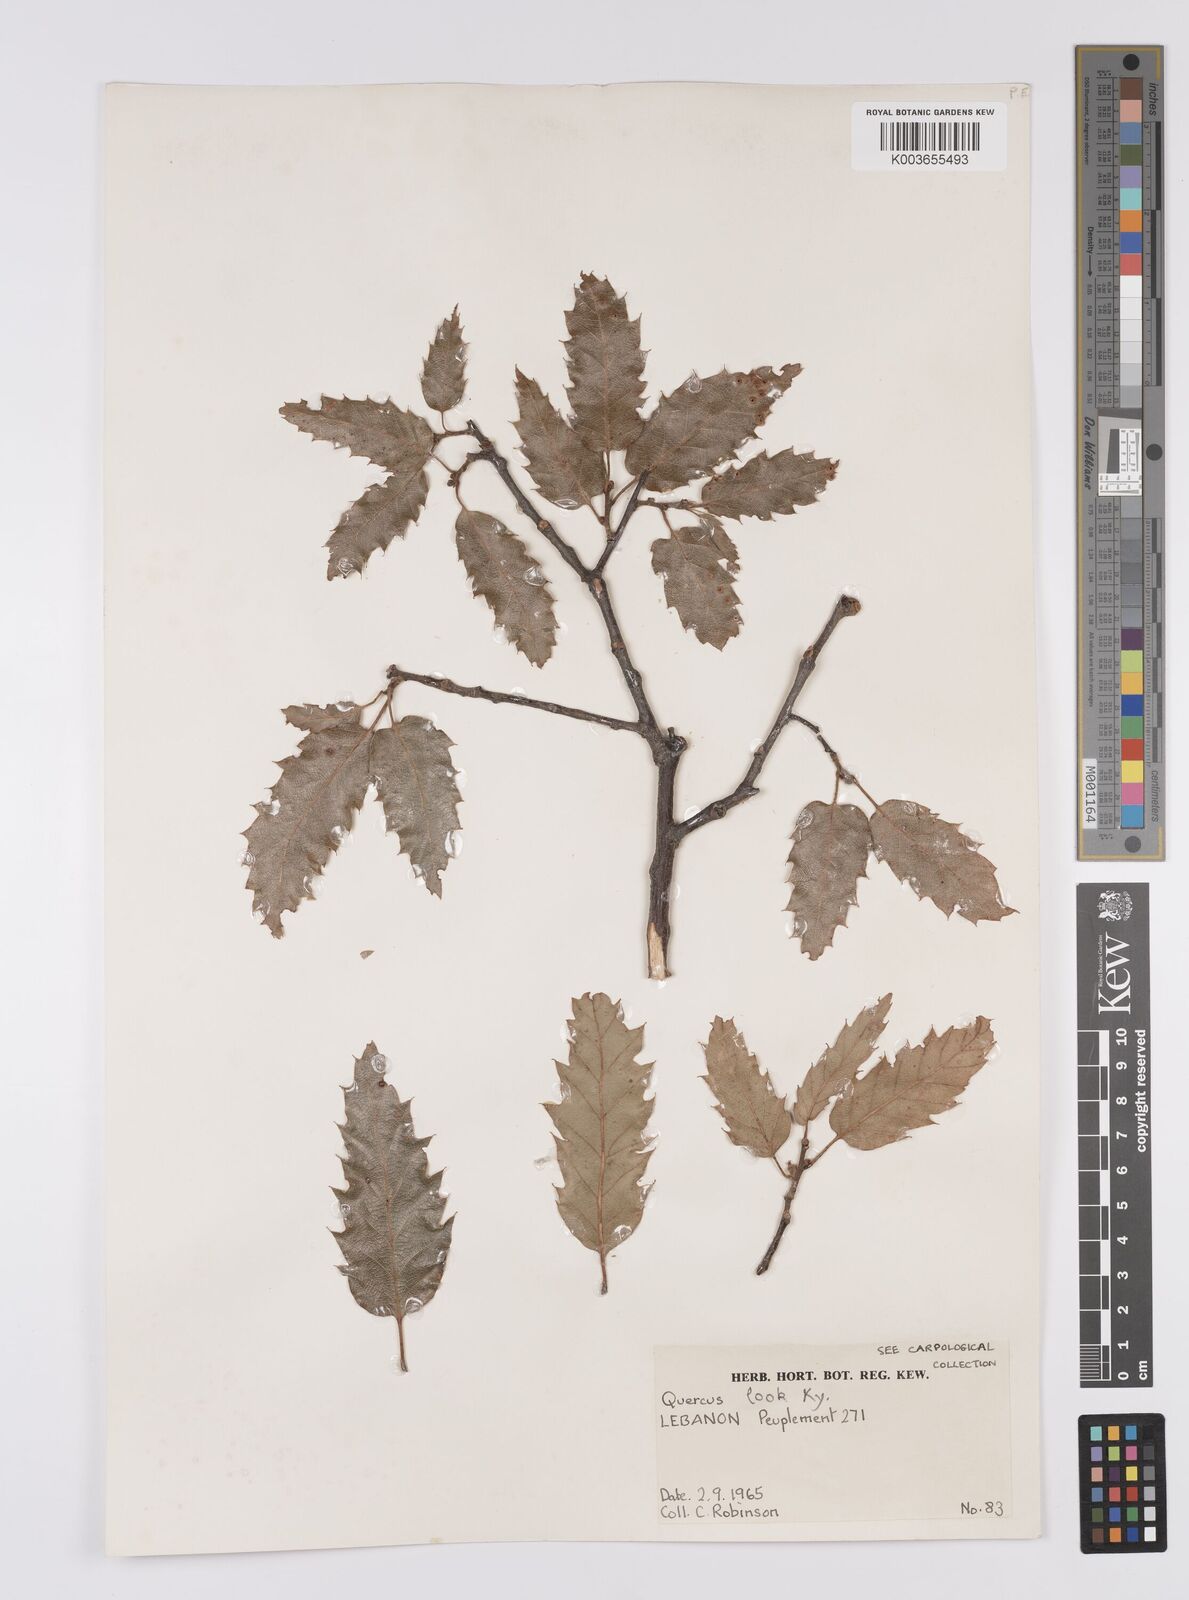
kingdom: Plantae
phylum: Tracheophyta
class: Magnoliopsida
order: Fagales
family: Fagaceae
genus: Quercus
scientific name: Quercus look
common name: Look oak
